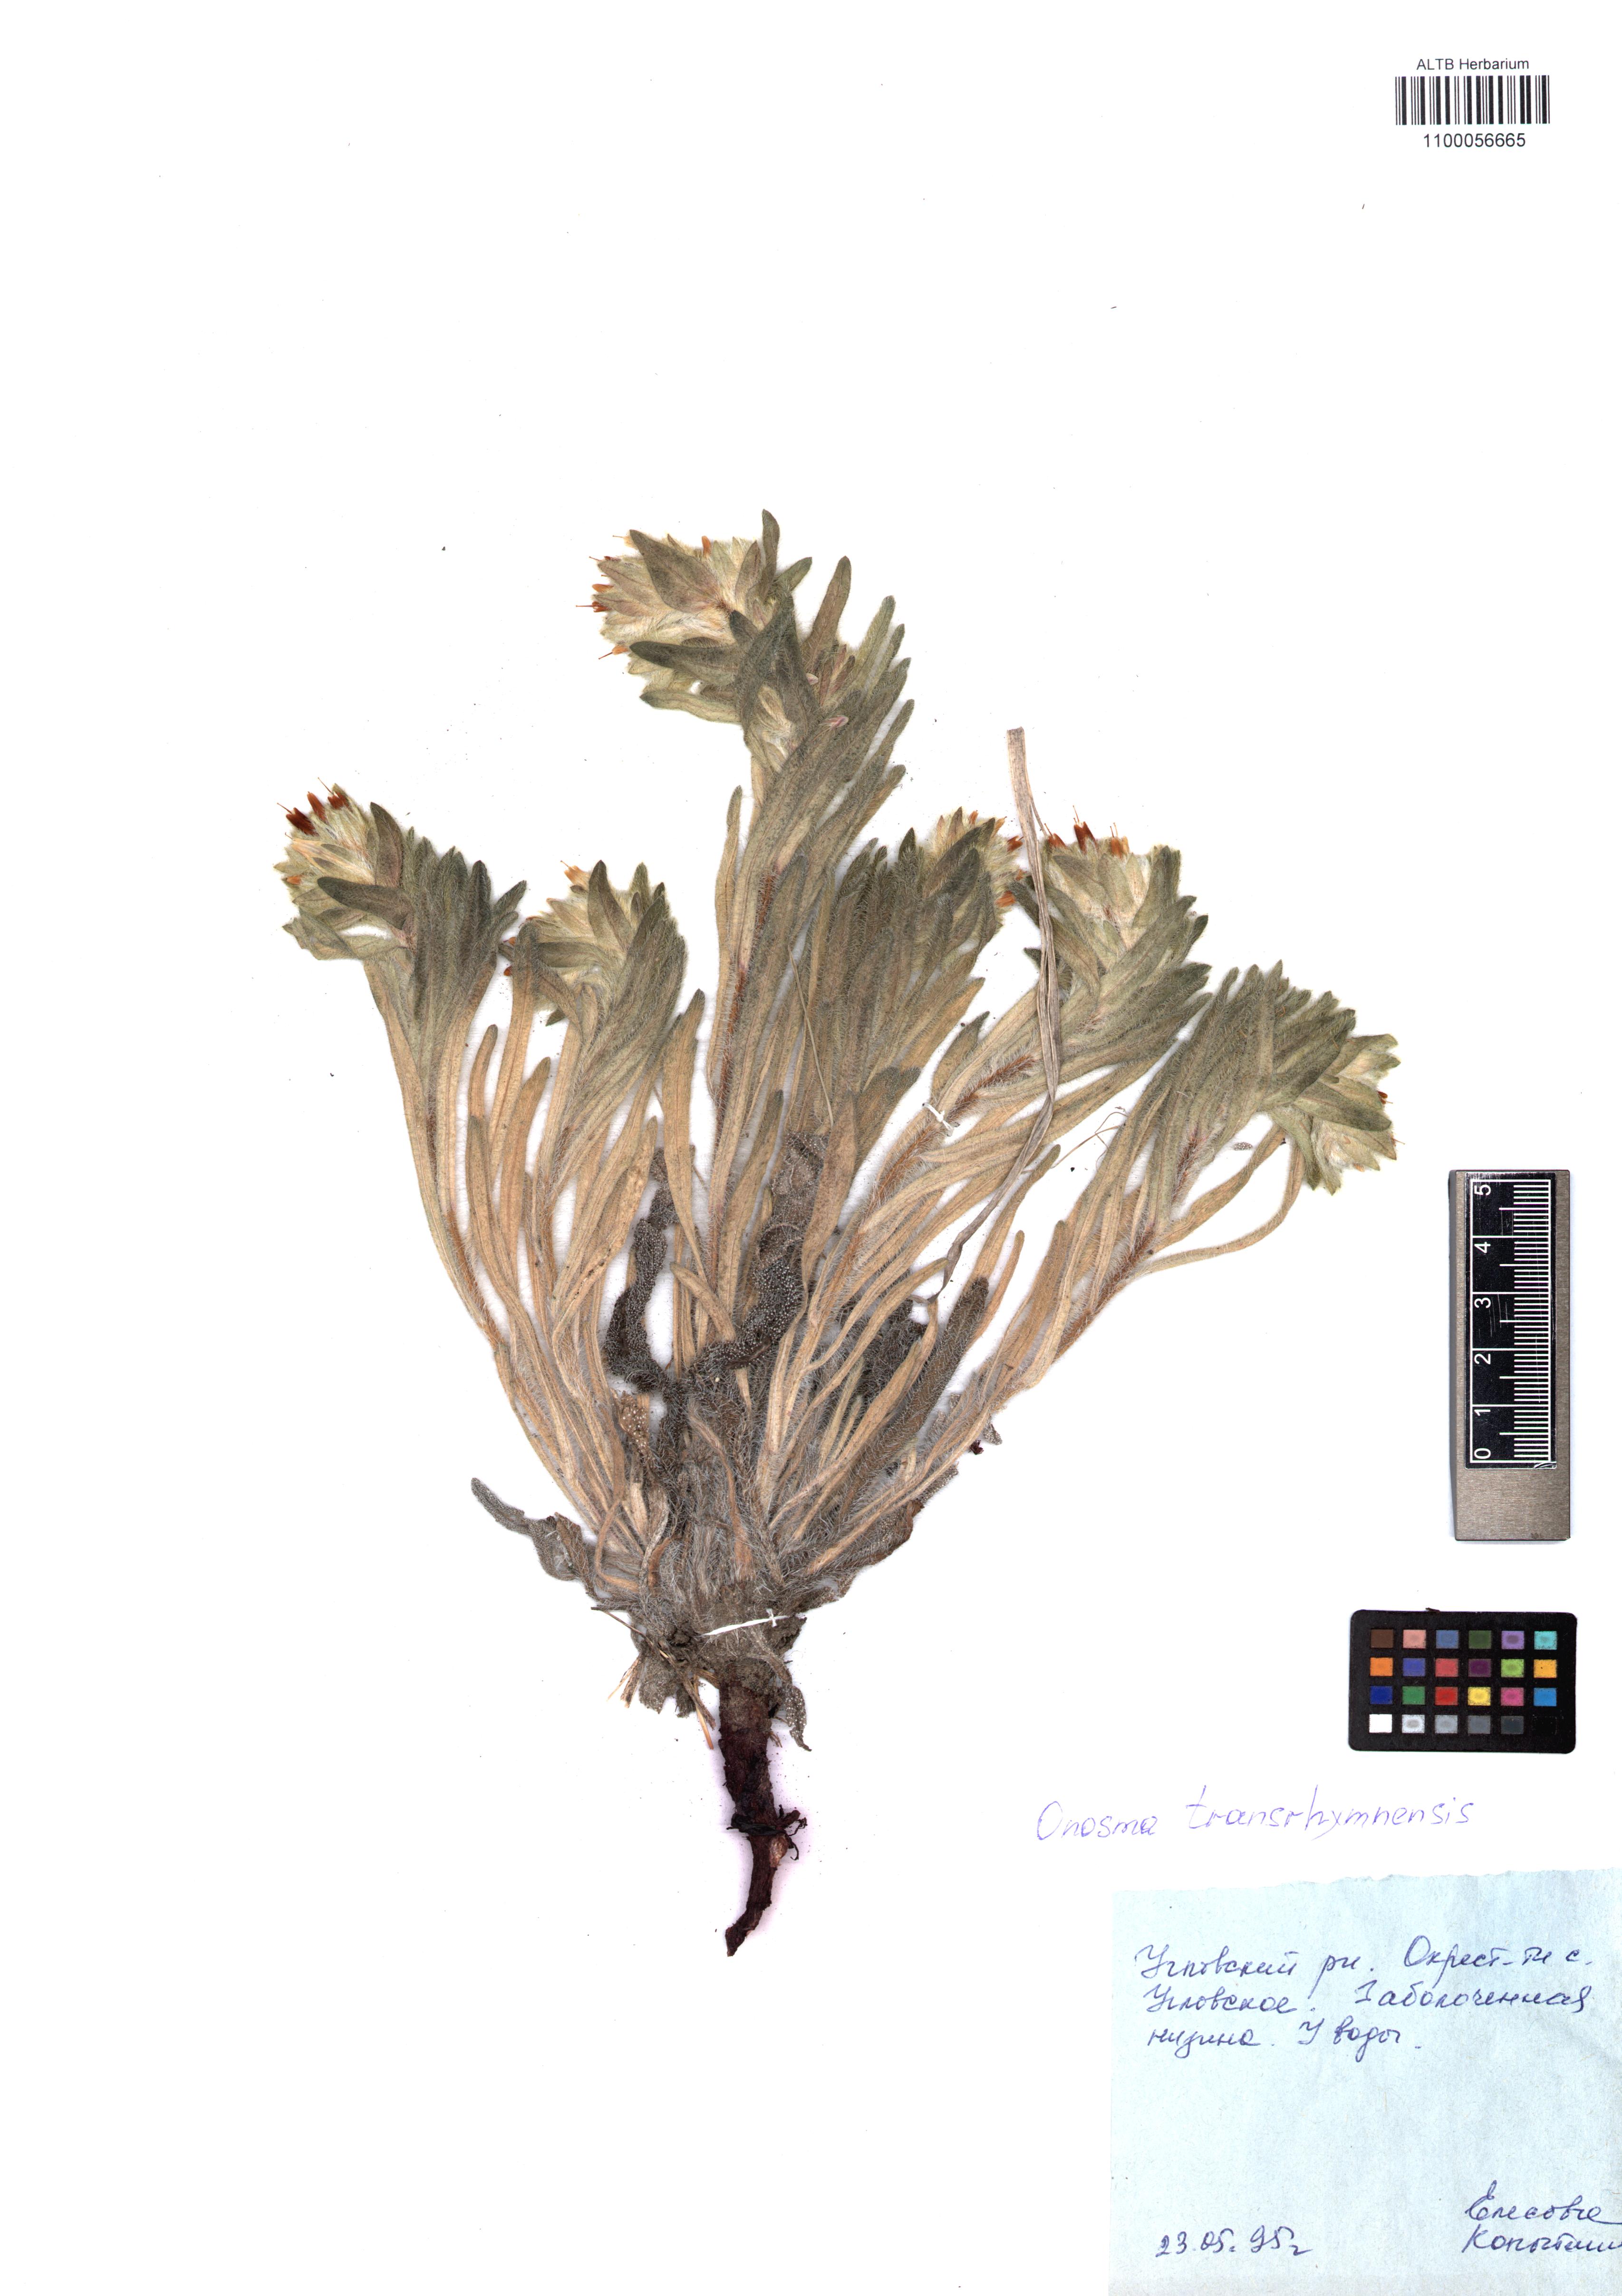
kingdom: Plantae
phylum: Tracheophyta
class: Magnoliopsida
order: Boraginales
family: Boraginaceae
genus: Onosma
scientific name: Onosma transrhymnensis
